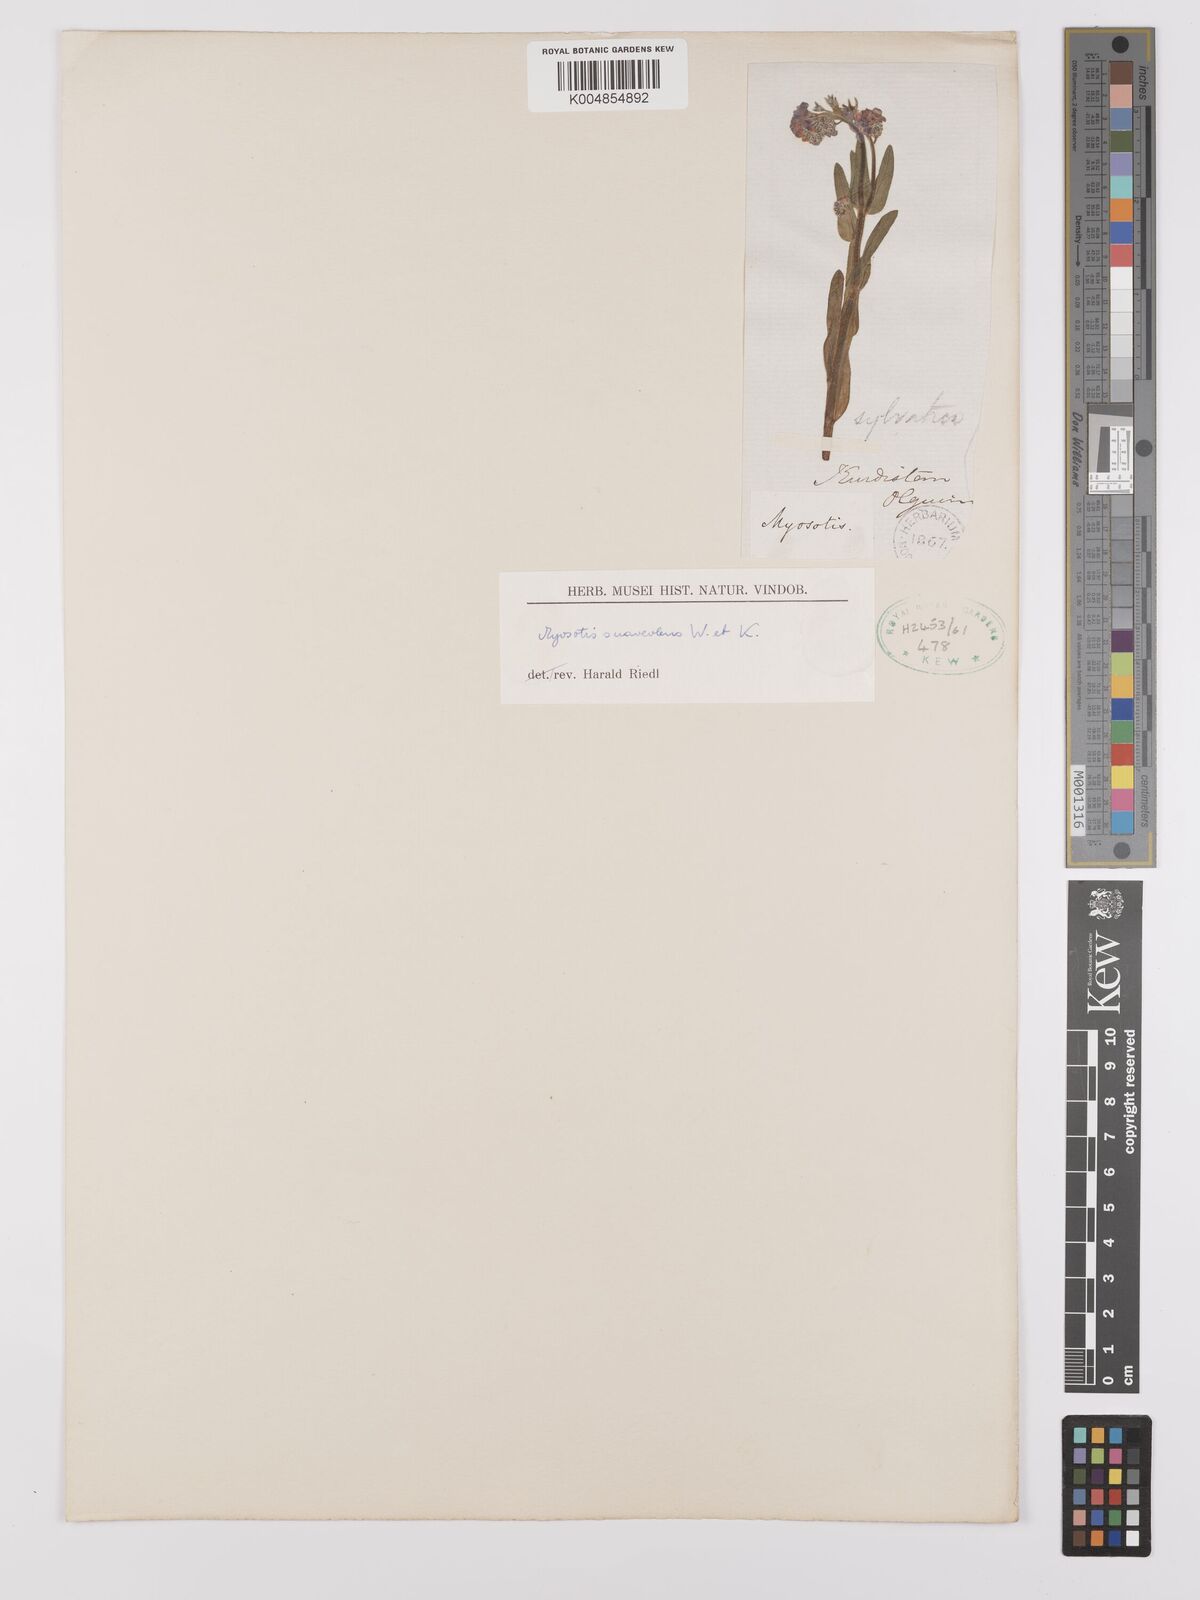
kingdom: Plantae
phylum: Tracheophyta
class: Magnoliopsida
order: Boraginales
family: Boraginaceae
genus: Myosotis
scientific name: Myosotis
